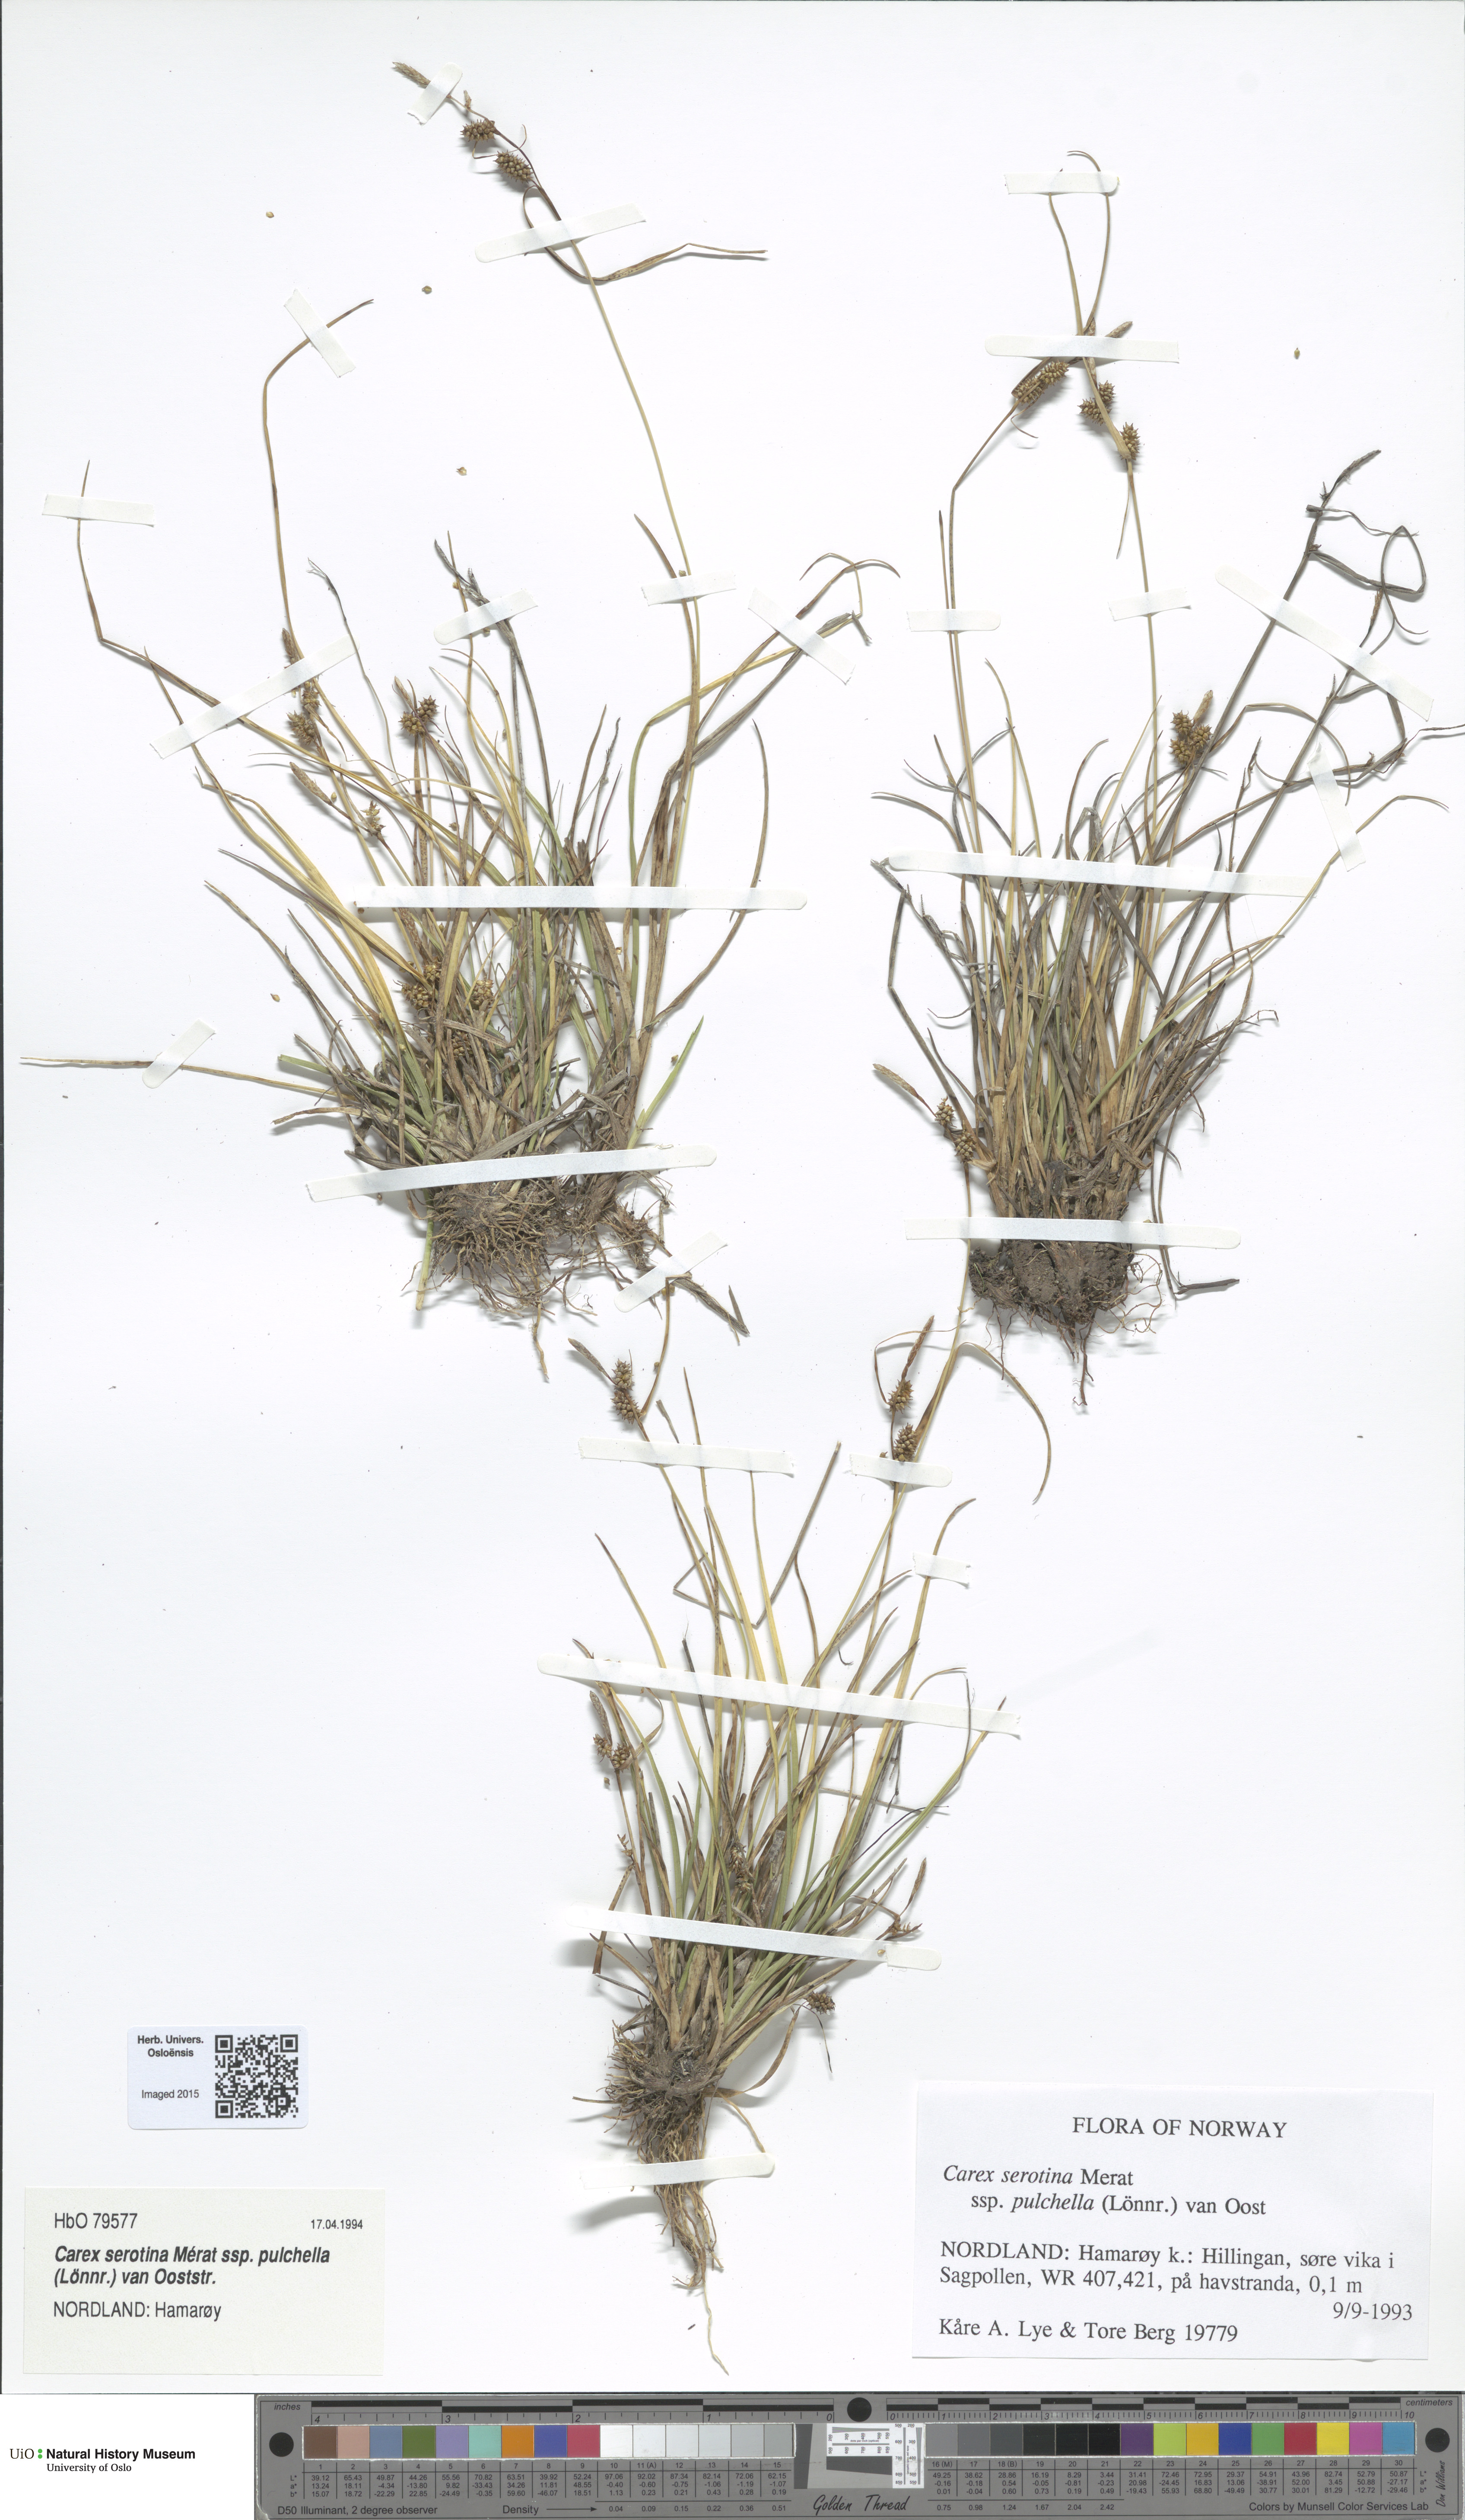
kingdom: Plantae
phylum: Tracheophyta
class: Liliopsida
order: Poales
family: Cyperaceae
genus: Carex
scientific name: Carex oederi
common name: Common & small-fruited yellow-sedge
